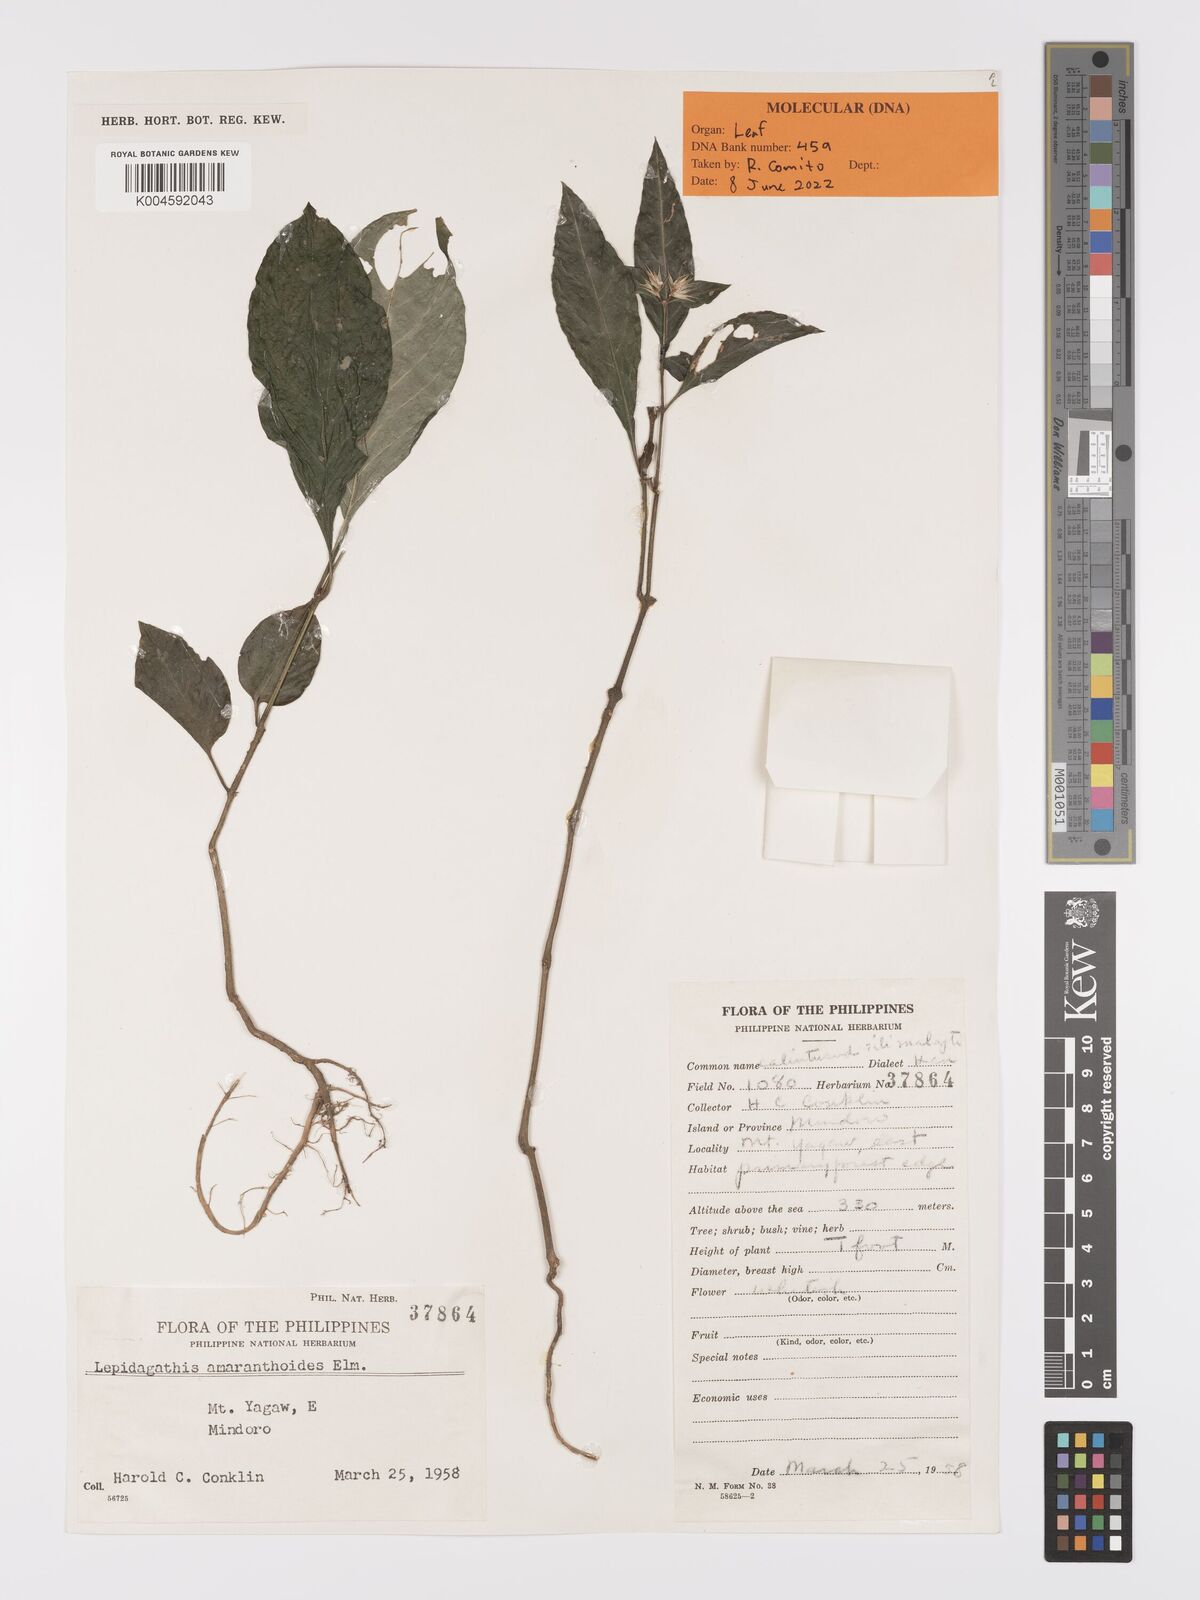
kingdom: Plantae
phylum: Tracheophyta
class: Magnoliopsida
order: Lamiales
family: Acanthaceae
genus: Lepidagathis
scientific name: Lepidagathis amaranthoides
